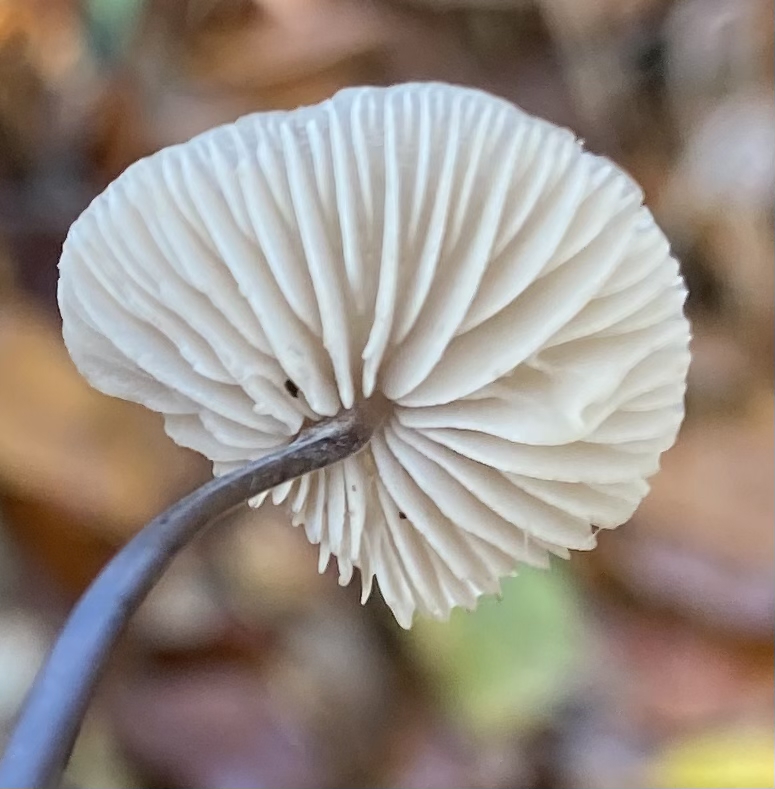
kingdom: Fungi
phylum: Basidiomycota
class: Agaricomycetes
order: Agaricales
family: Omphalotaceae
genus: Mycetinis
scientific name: Mycetinis alliaceus
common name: stor løghat
